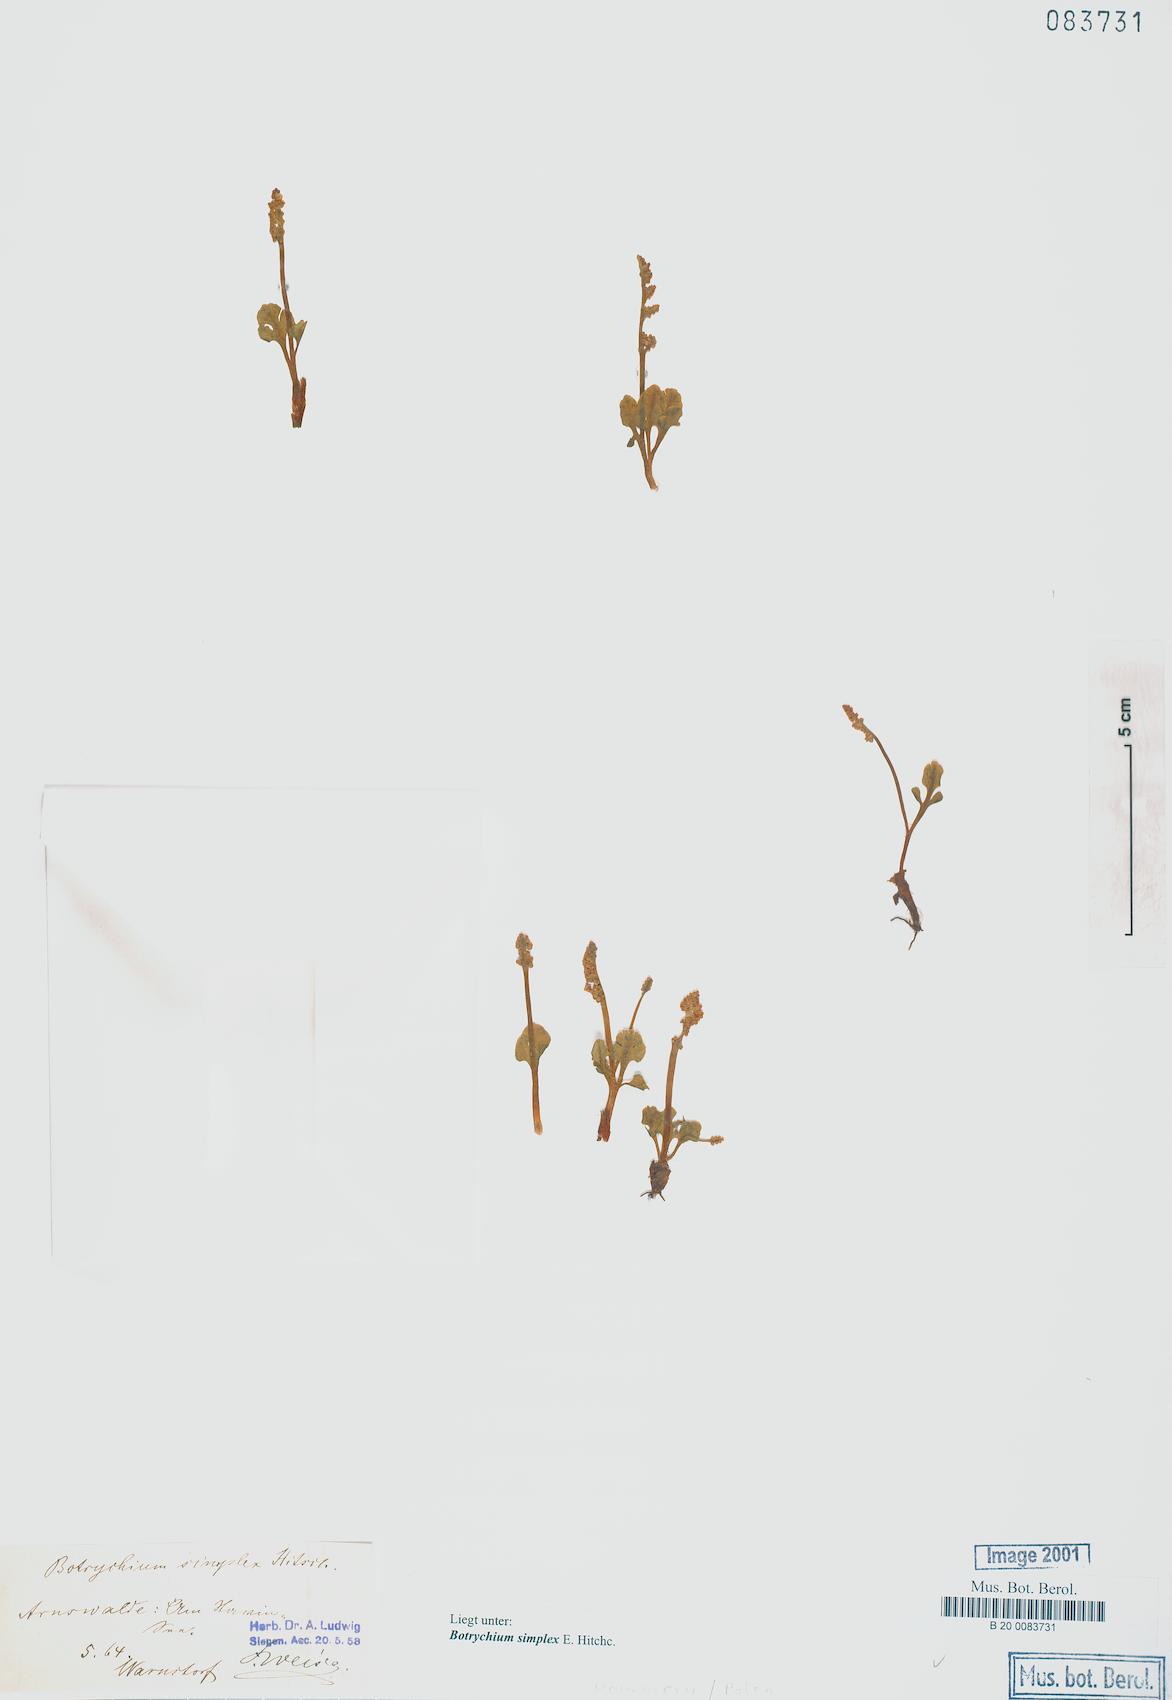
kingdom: Plantae
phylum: Tracheophyta
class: Polypodiopsida
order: Ophioglossales
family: Ophioglossaceae
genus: Botrychium
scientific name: Botrychium simplex
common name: Least moonwort
